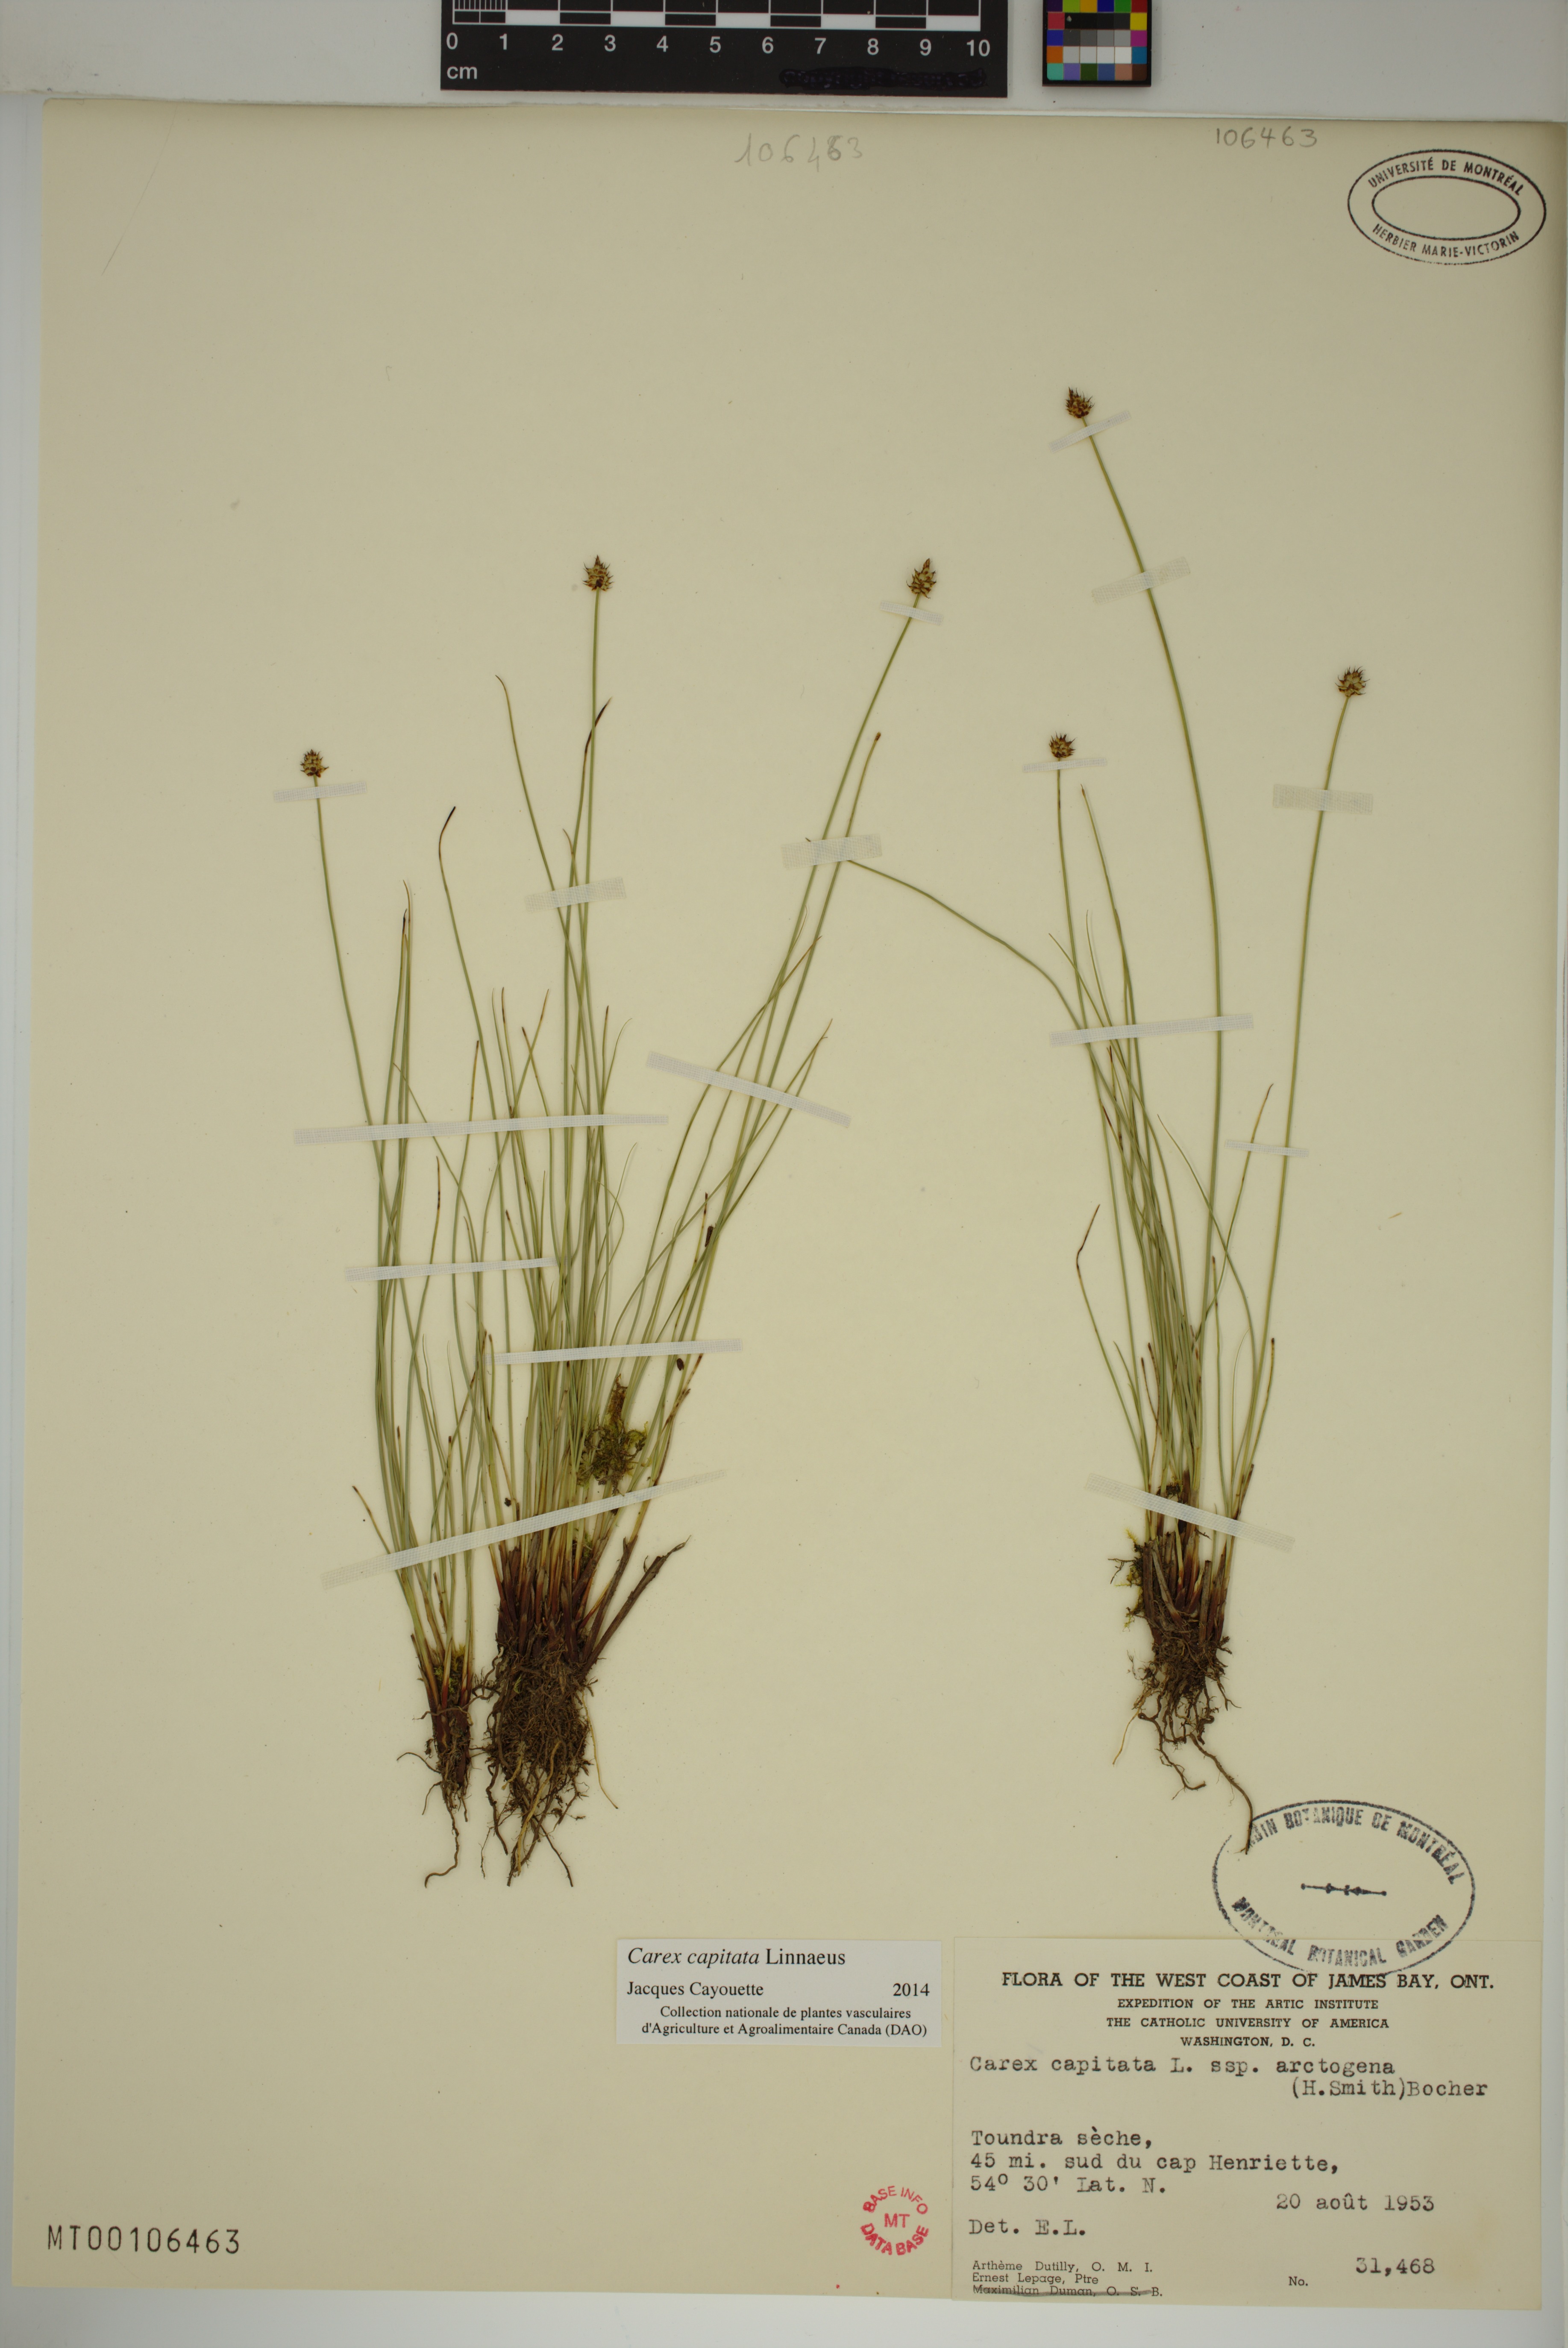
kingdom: Plantae
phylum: Tracheophyta
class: Liliopsida
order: Poales
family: Cyperaceae
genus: Carex
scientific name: Carex capitata
